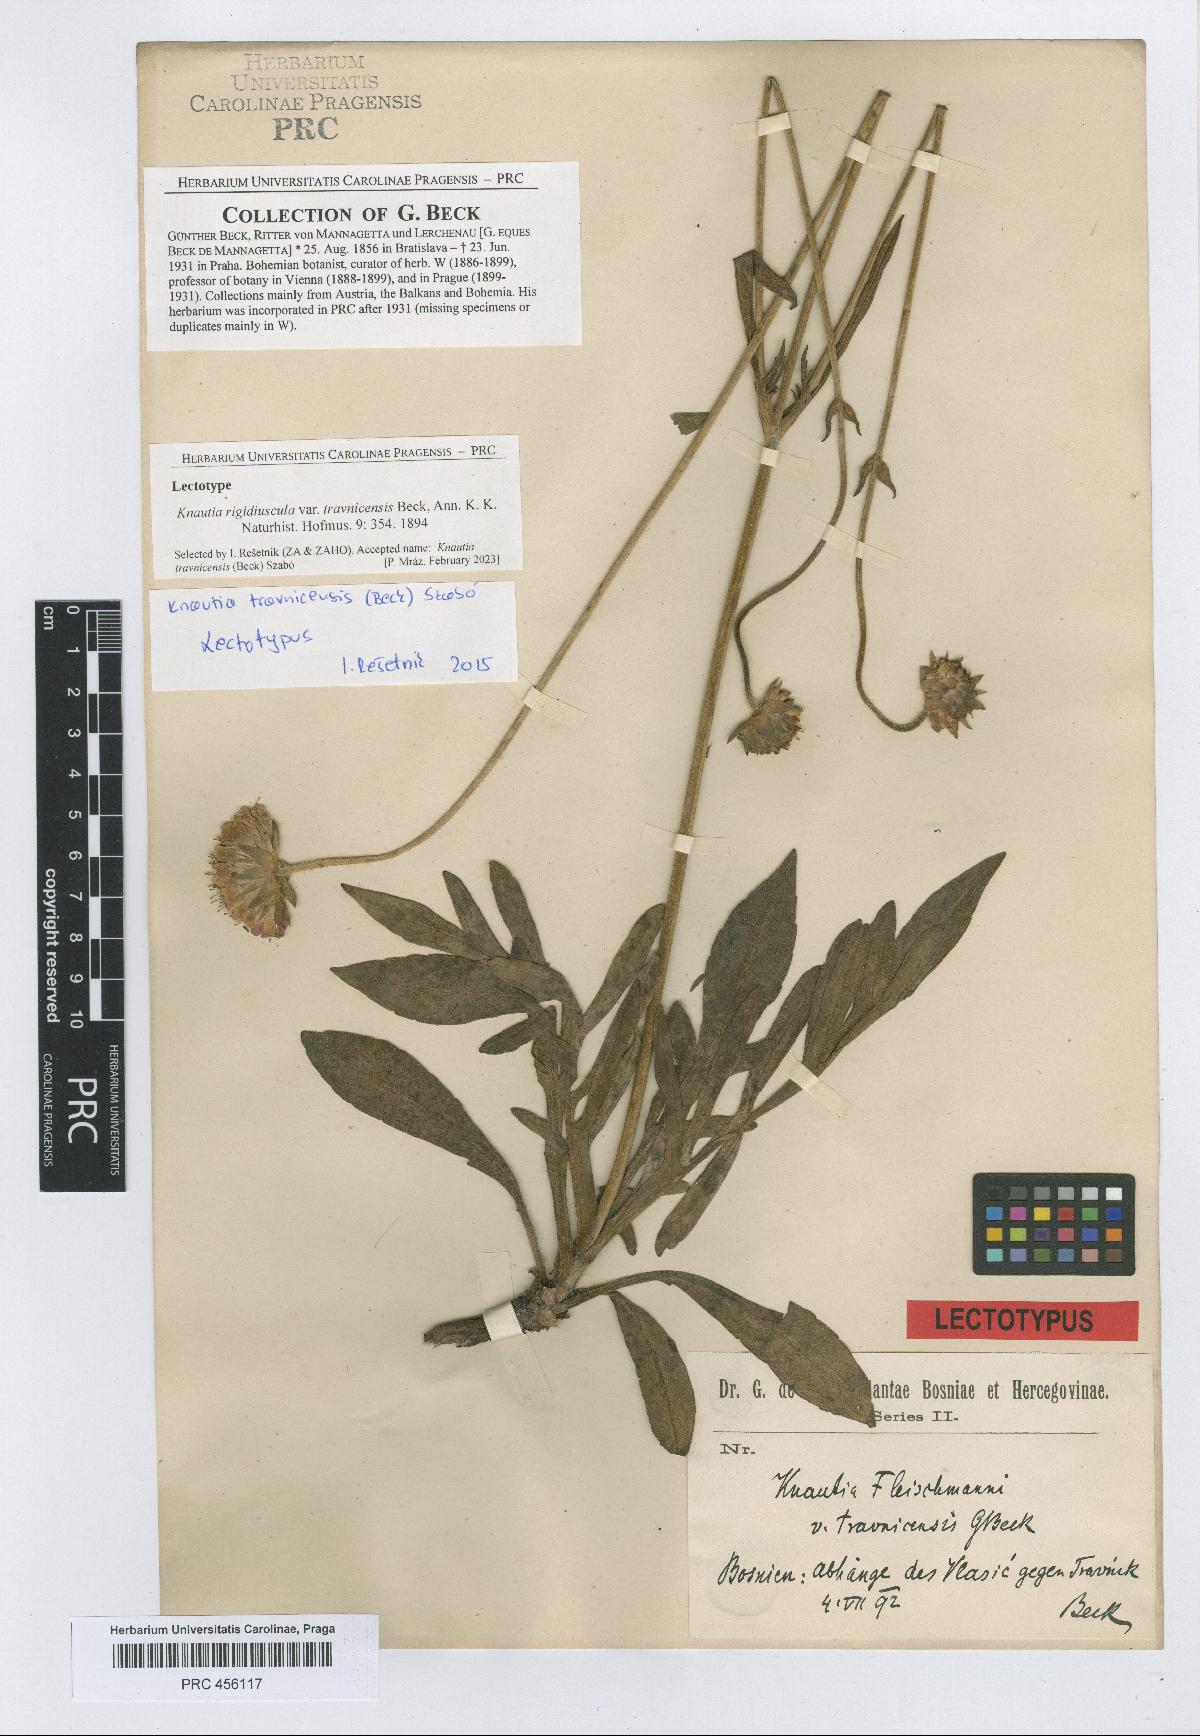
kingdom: Plantae
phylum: Tracheophyta
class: Magnoliopsida
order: Dipsacales
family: Caprifoliaceae
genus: Knautia
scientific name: Knautia travnicensis
